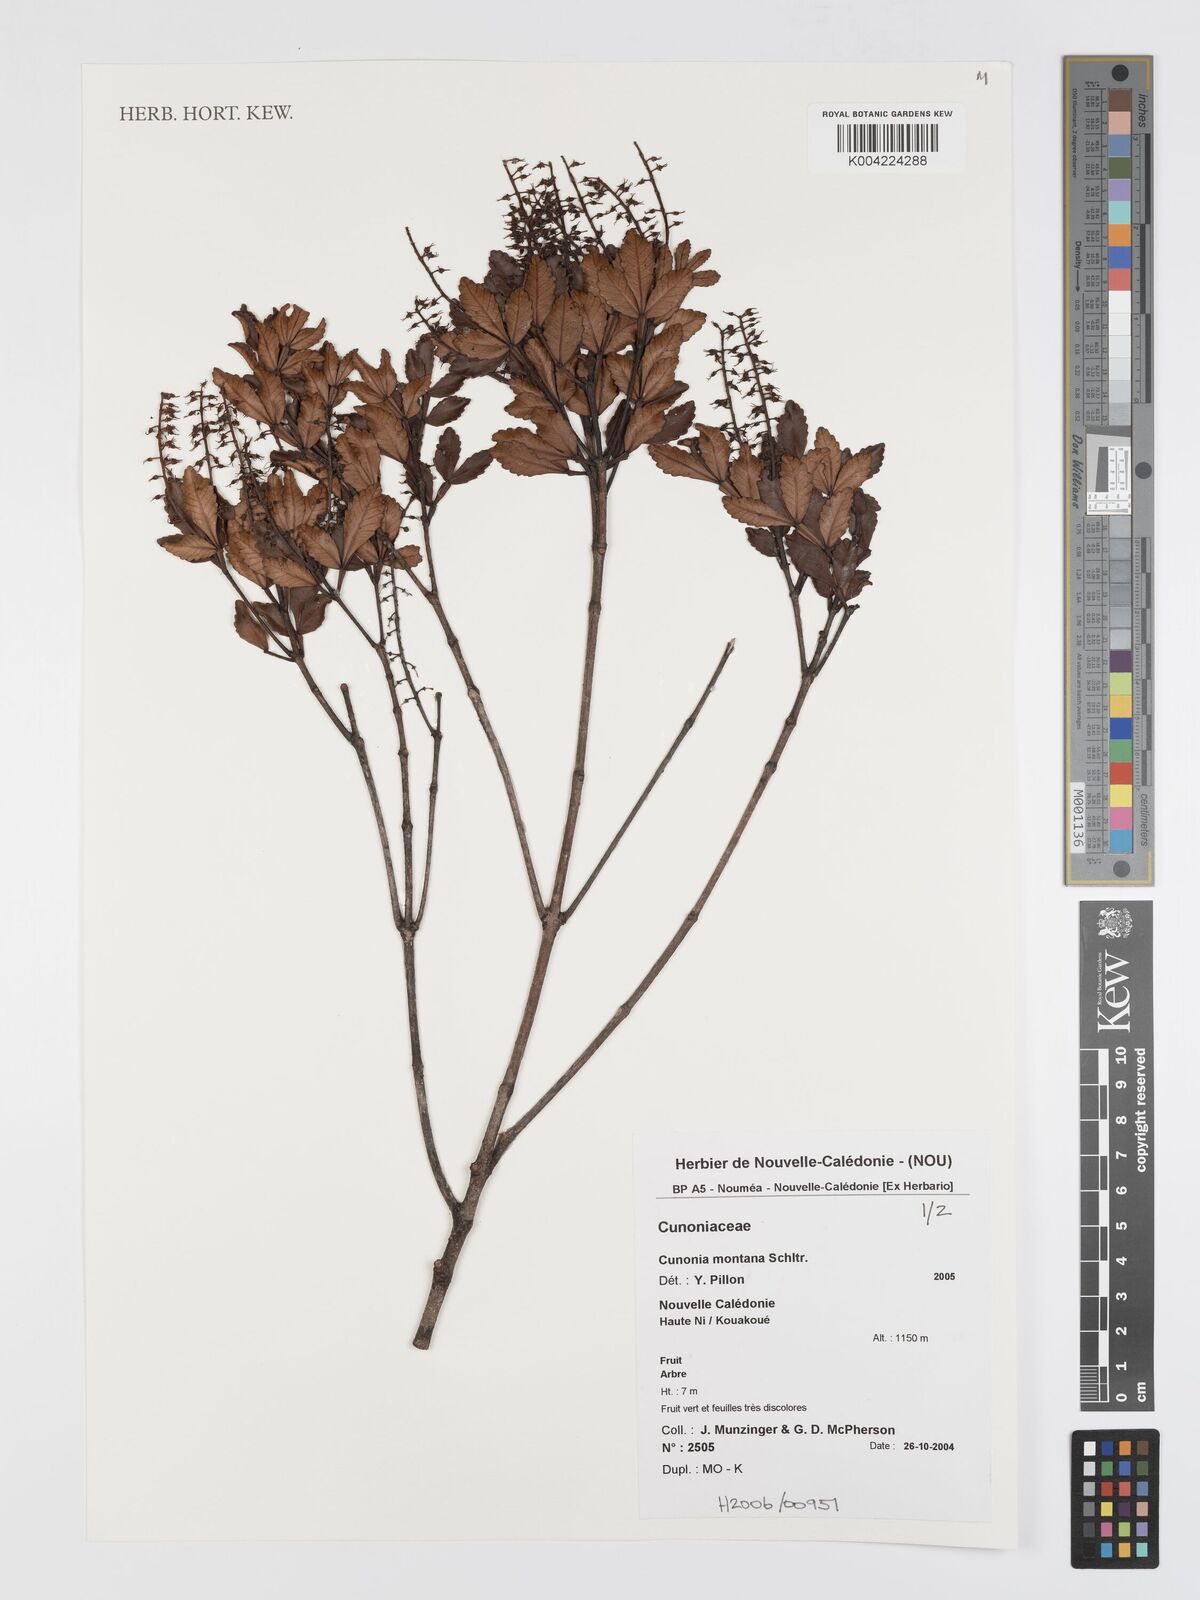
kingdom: Plantae
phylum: Tracheophyta
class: Magnoliopsida
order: Oxalidales
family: Cunoniaceae
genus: Cunonia
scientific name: Cunonia montana
